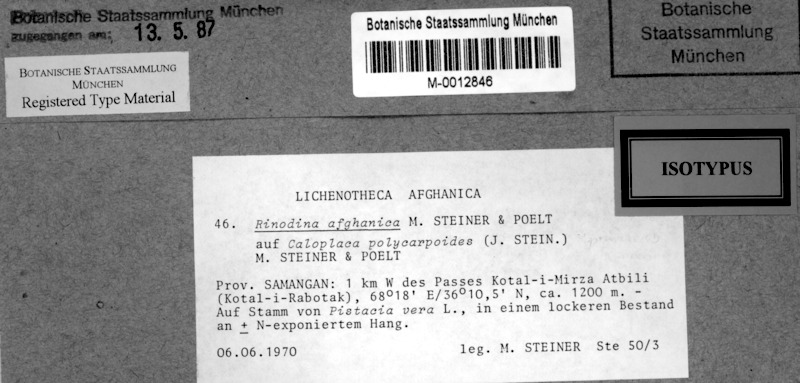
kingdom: Fungi
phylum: Ascomycota
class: Lecanoromycetes
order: Caliciales
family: Physciaceae
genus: Oxnerella
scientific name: Oxnerella afghanica
